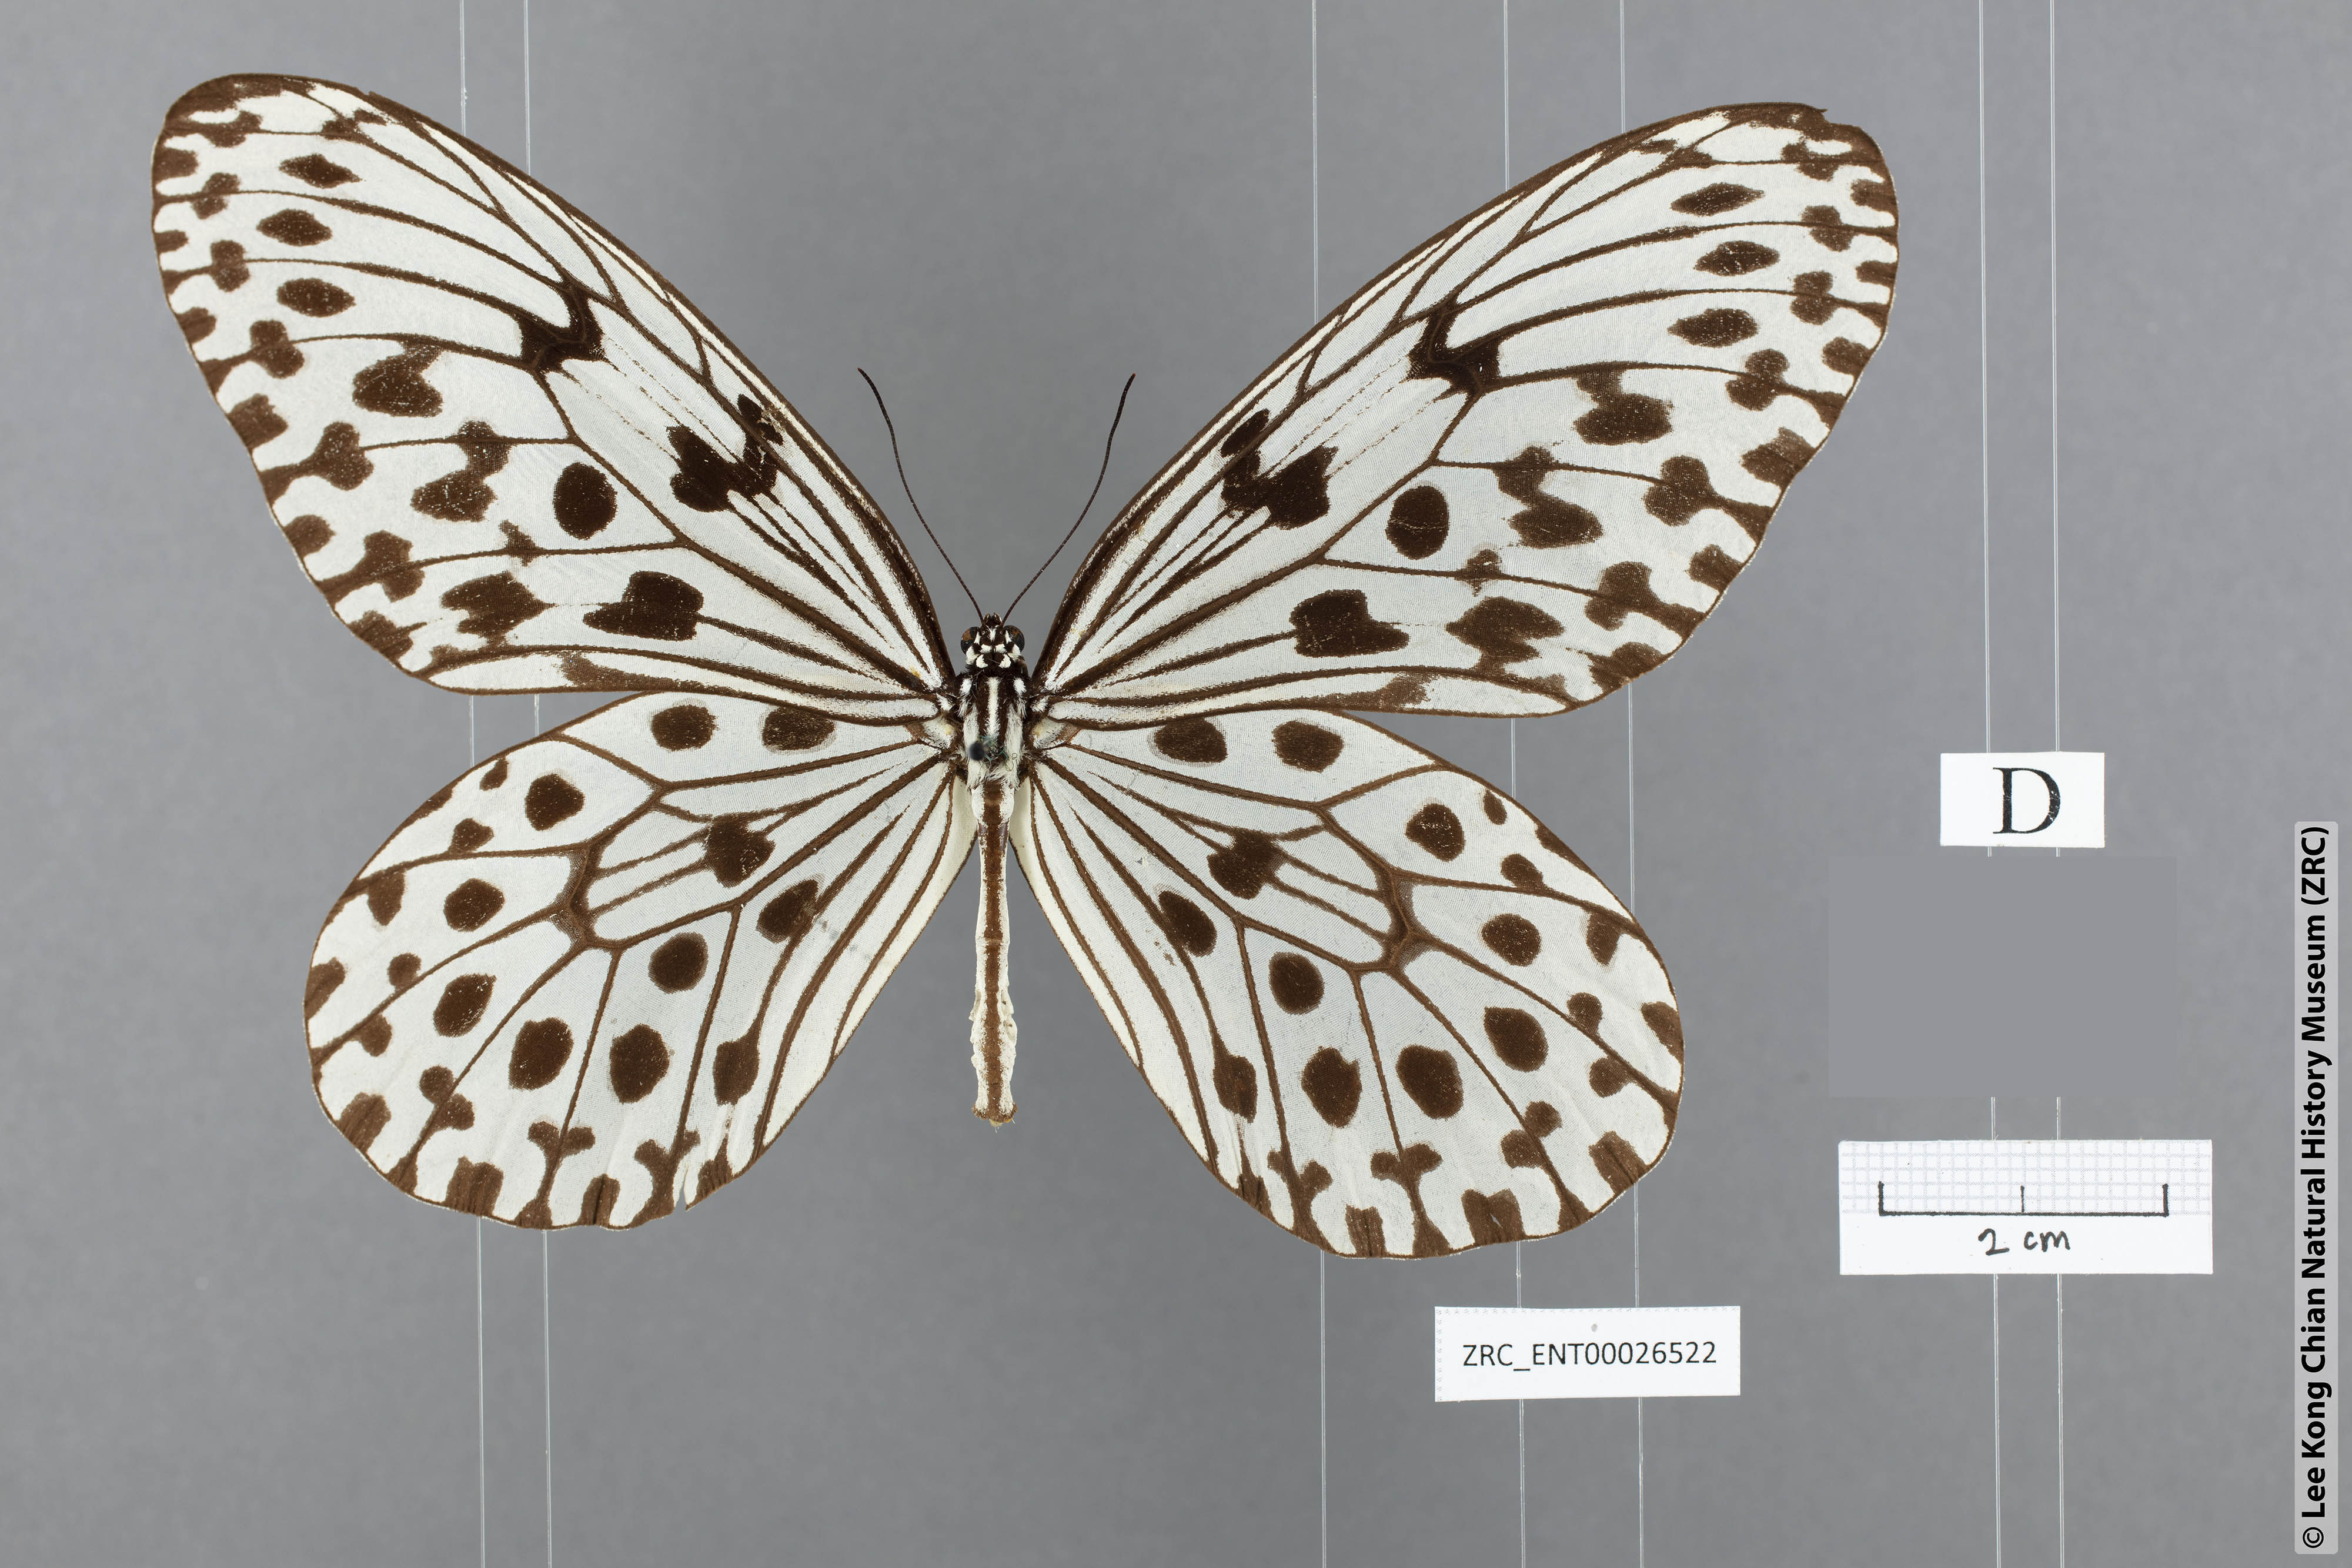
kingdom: Animalia
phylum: Arthropoda
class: Insecta
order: Lepidoptera
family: Nymphalidae
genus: Idea
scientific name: Idea hypermnestra
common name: Malayan tree nymph
